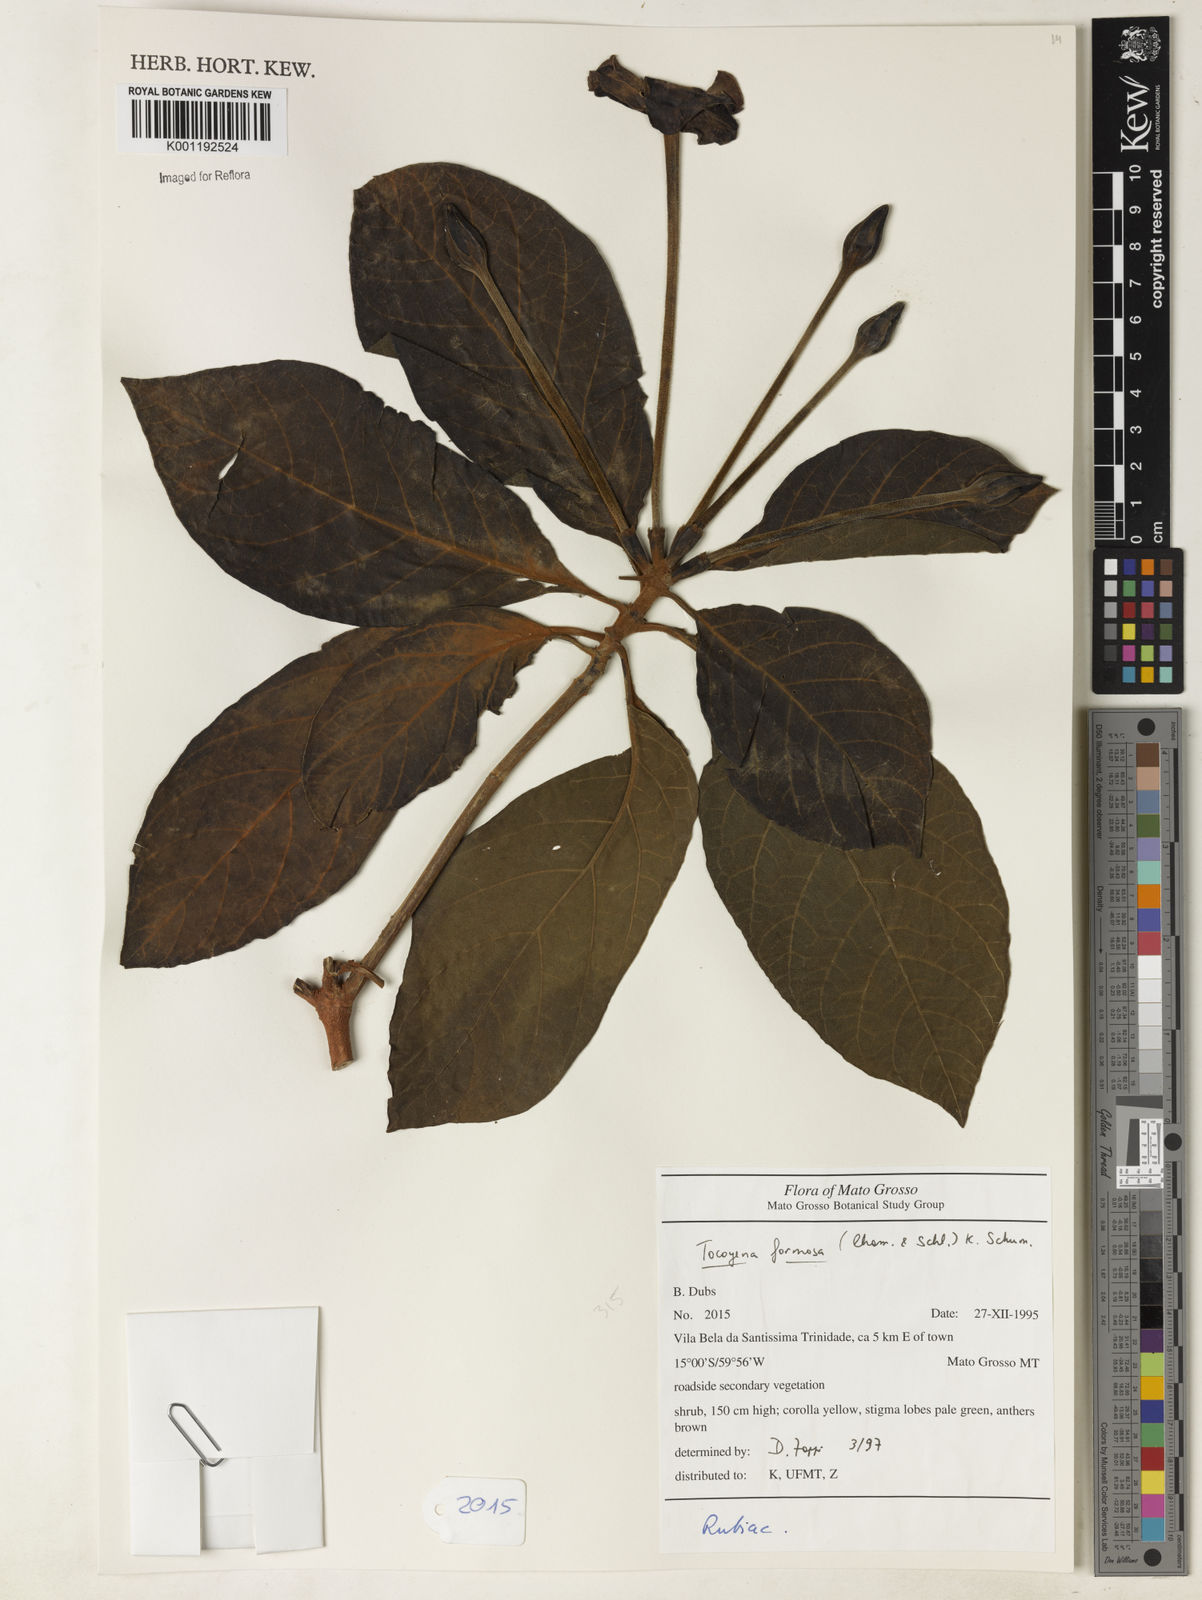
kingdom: Plantae
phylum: Tracheophyta
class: Magnoliopsida
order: Gentianales
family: Rubiaceae
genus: Tocoyena
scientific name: Tocoyena formosa
